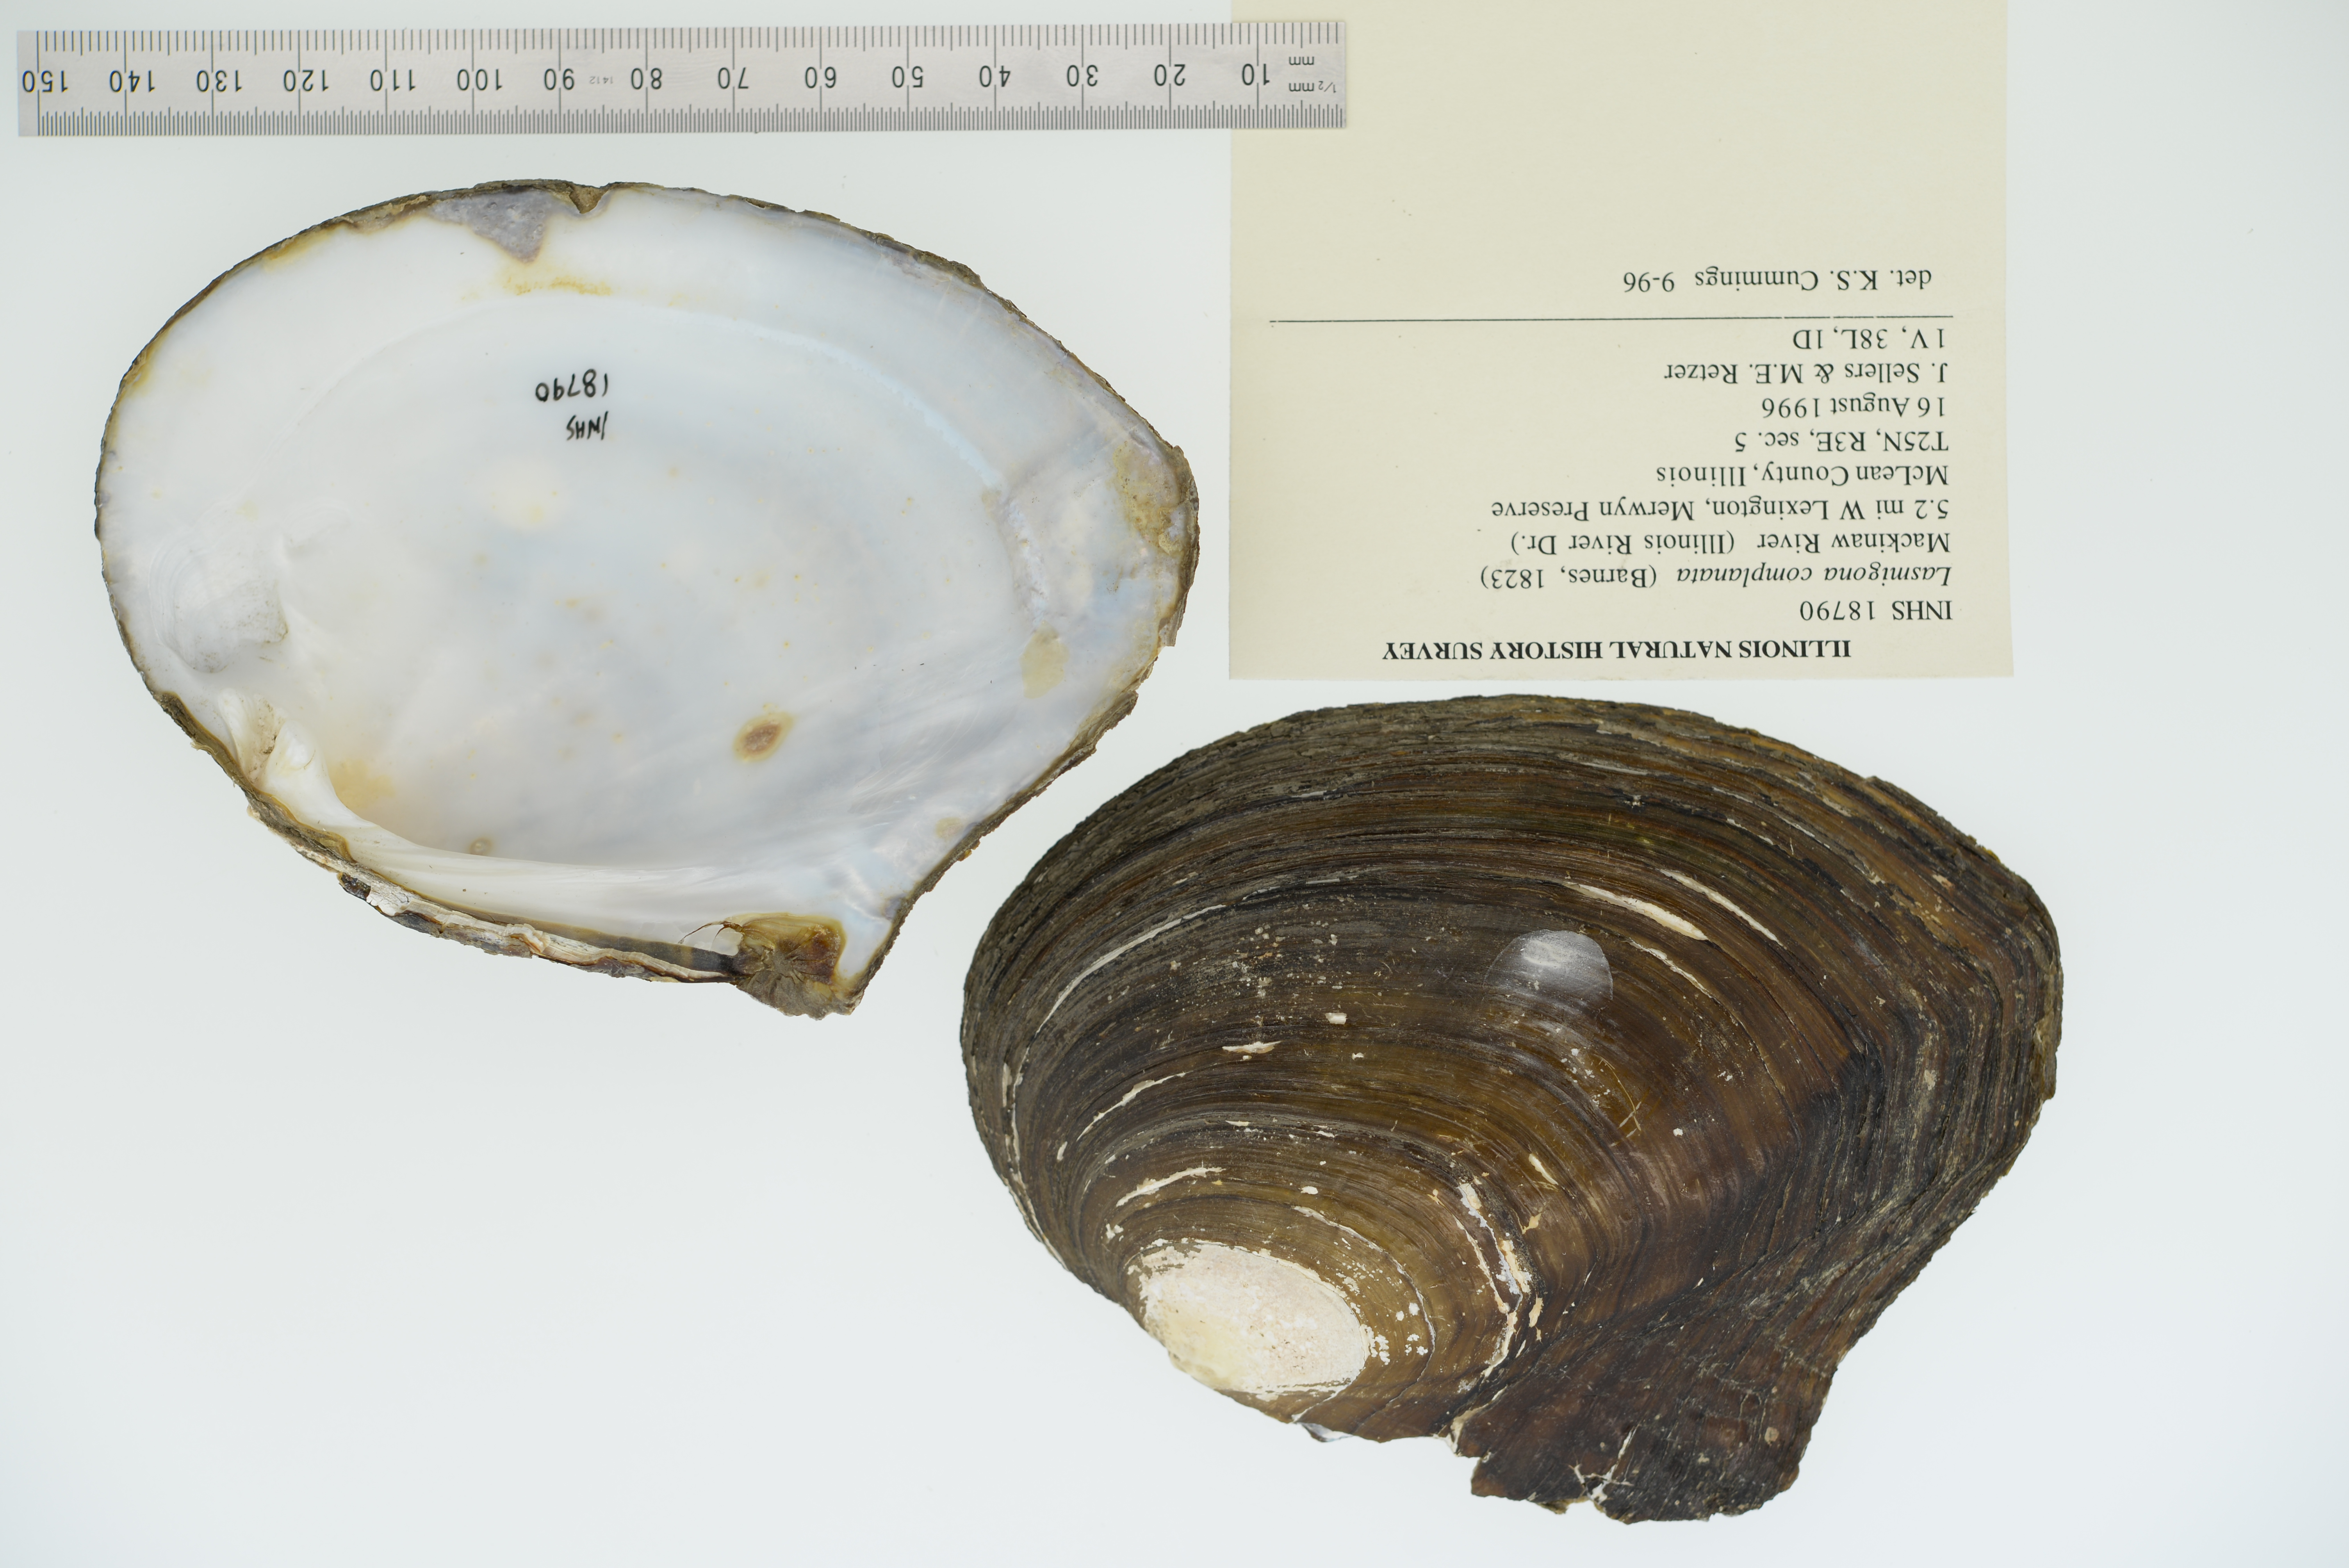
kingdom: Animalia
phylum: Mollusca
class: Bivalvia
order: Unionida
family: Unionidae
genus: Lasmigona
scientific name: Lasmigona complanata
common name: White heelsplitter
